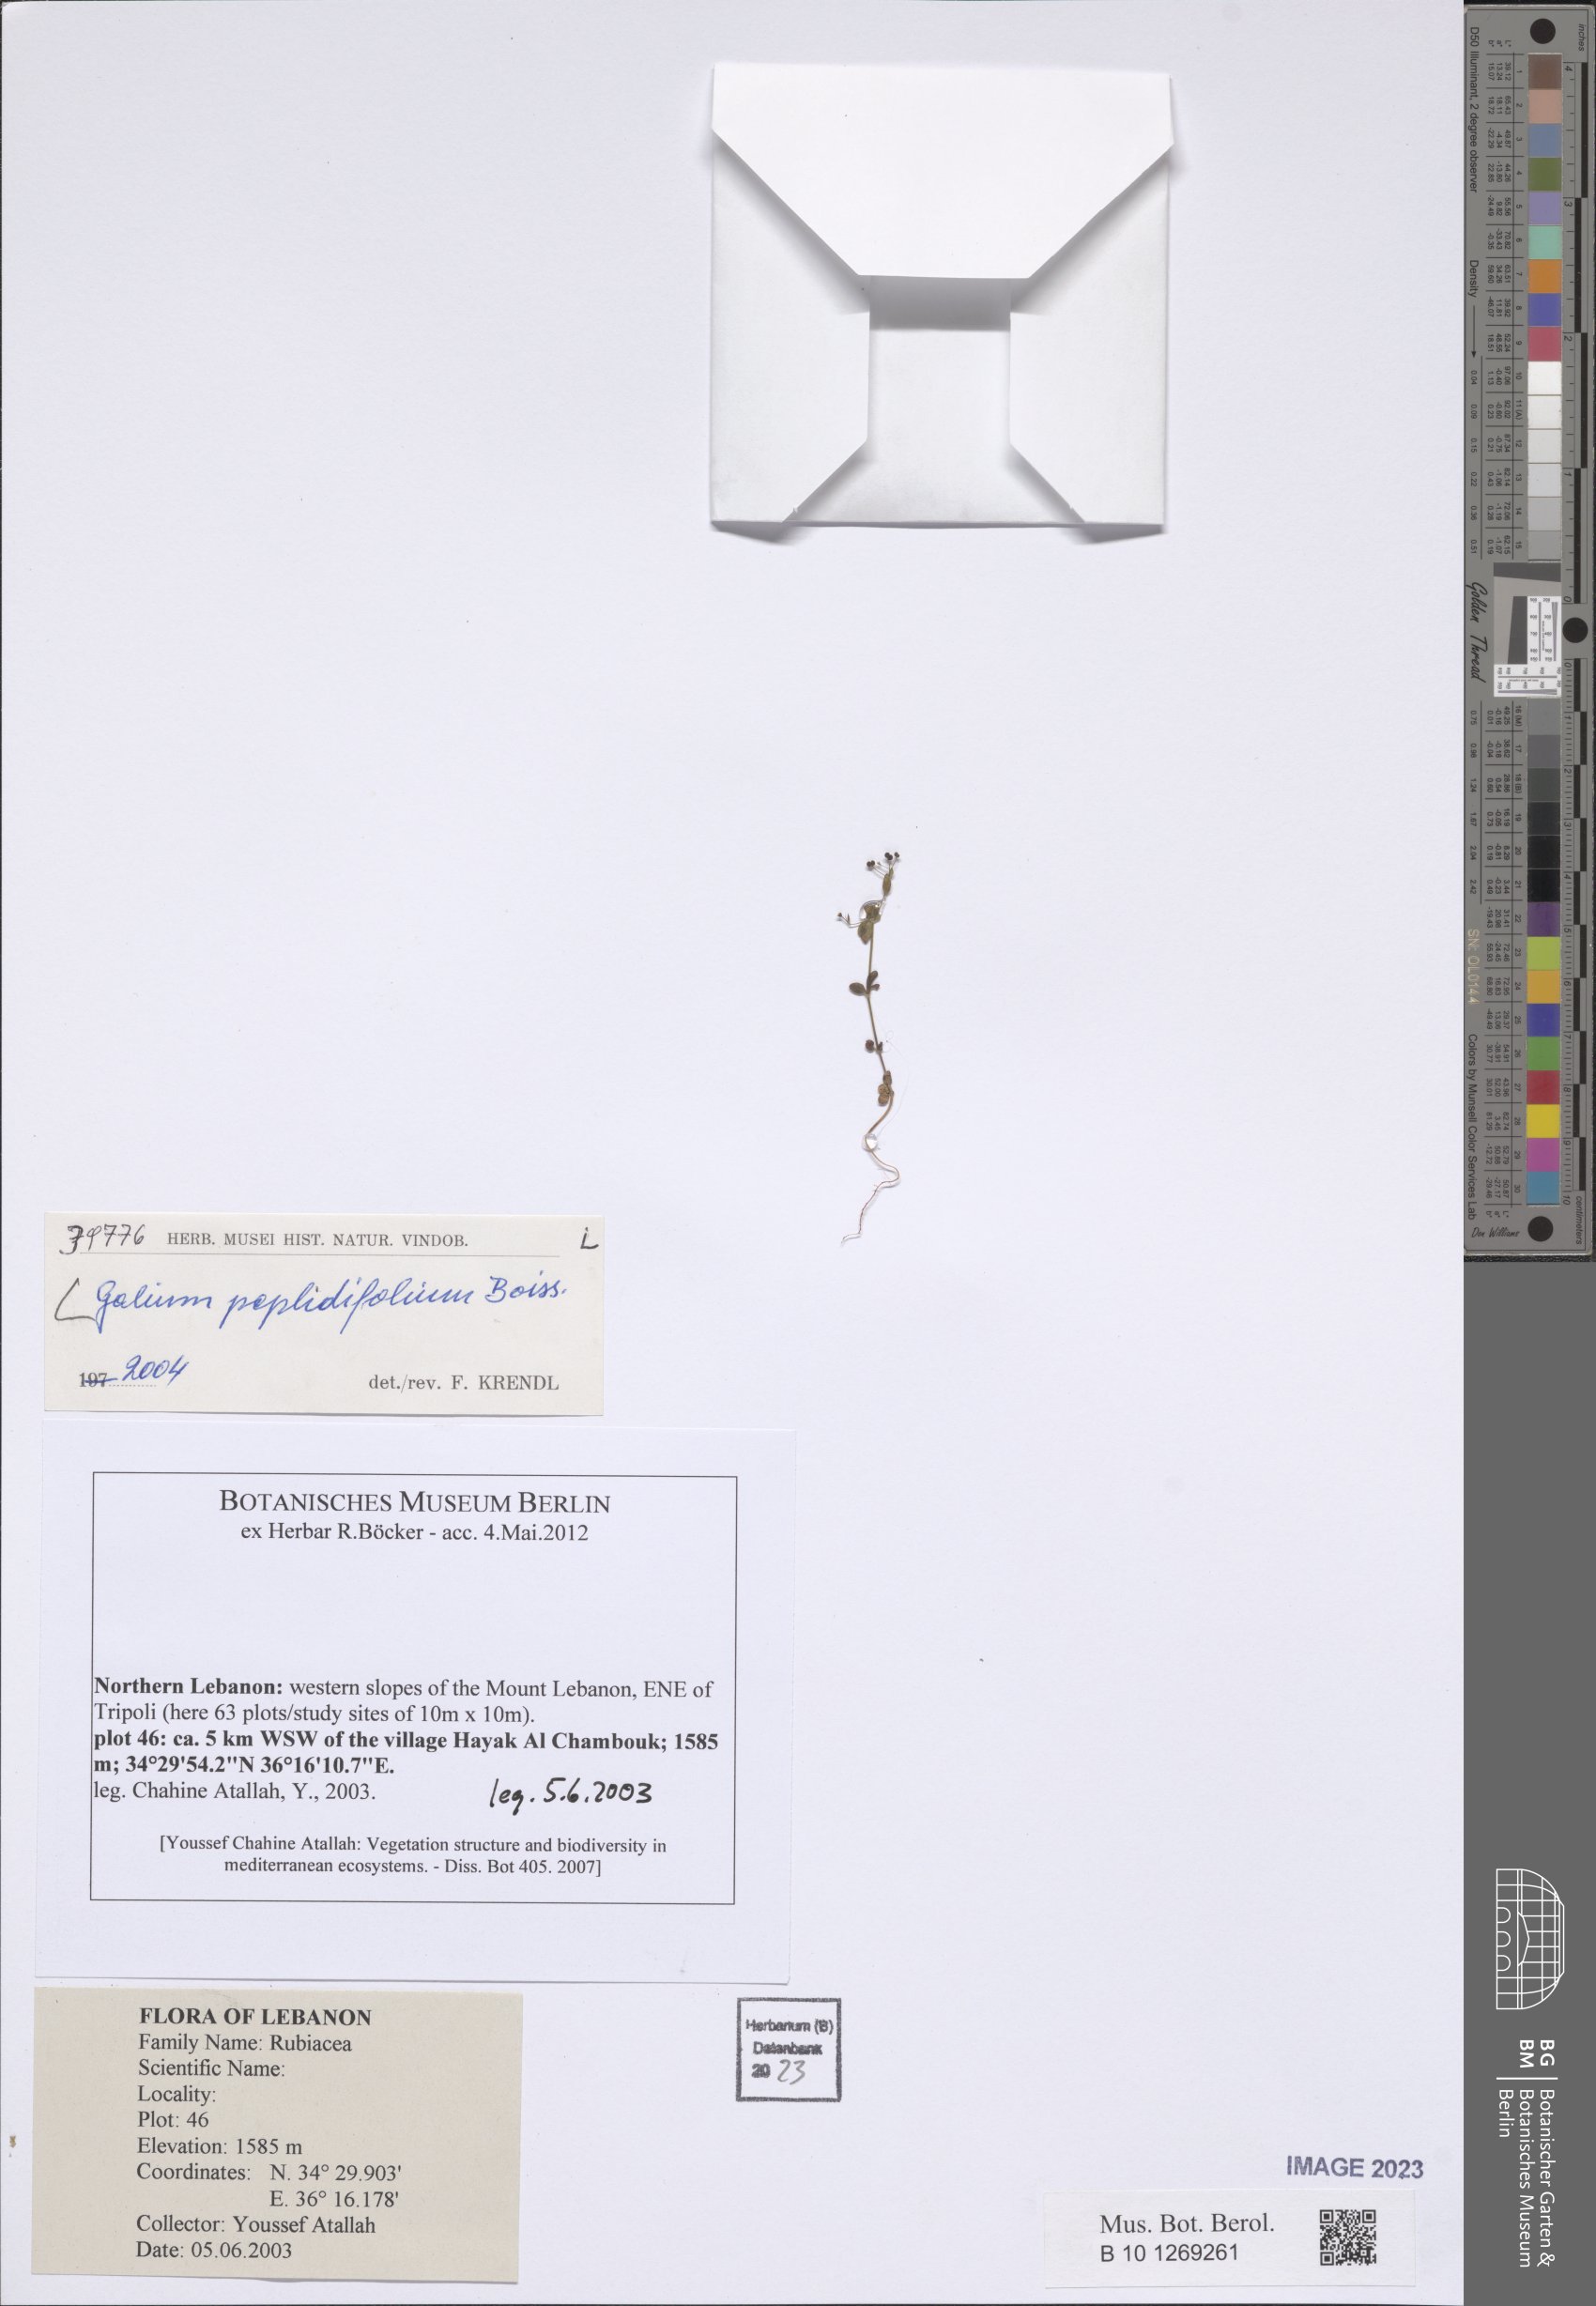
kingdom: Plantae
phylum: Tracheophyta
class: Magnoliopsida
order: Gentianales
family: Rubiaceae
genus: Galium
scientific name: Galium peplidifolium
